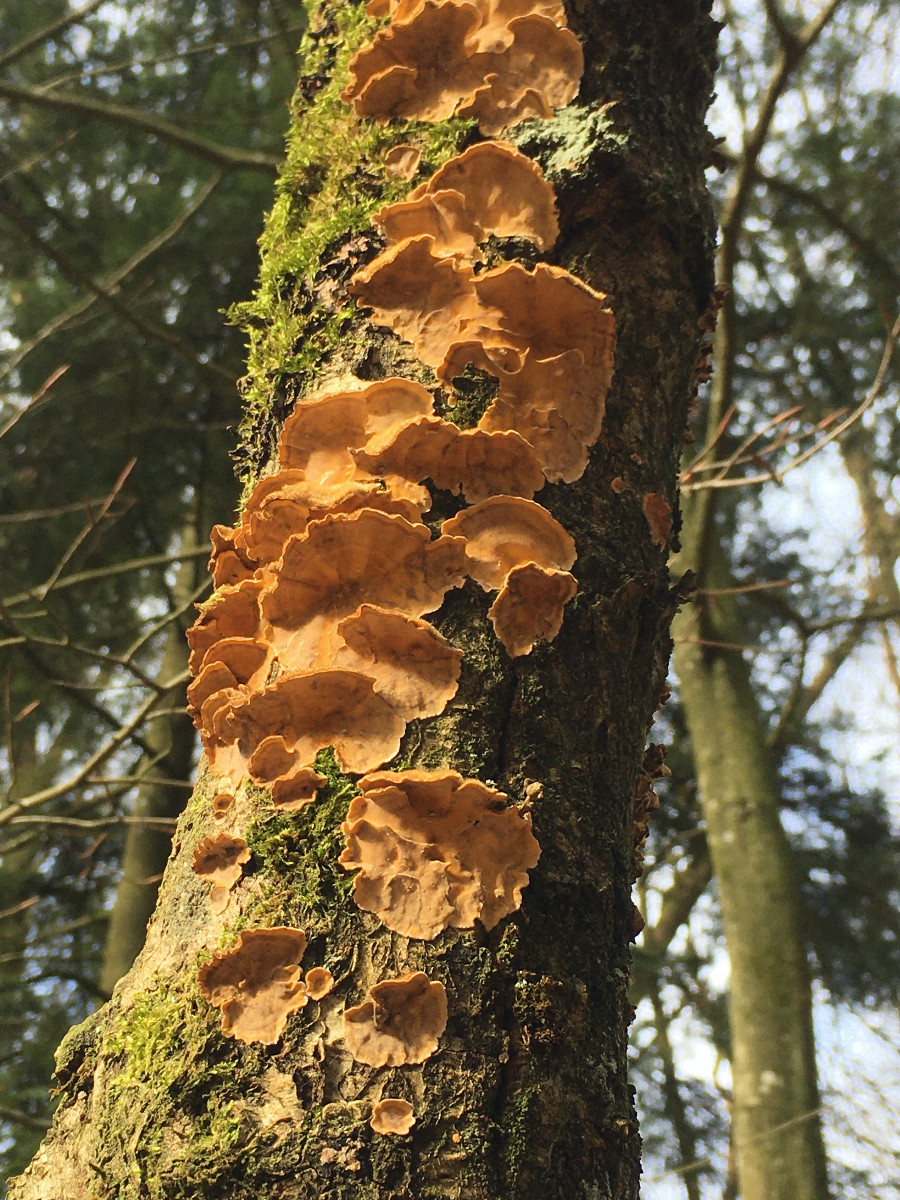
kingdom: Fungi
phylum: Basidiomycota
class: Agaricomycetes
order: Russulales
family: Stereaceae
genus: Stereum
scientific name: Stereum hirsutum
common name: håret lædersvamp
